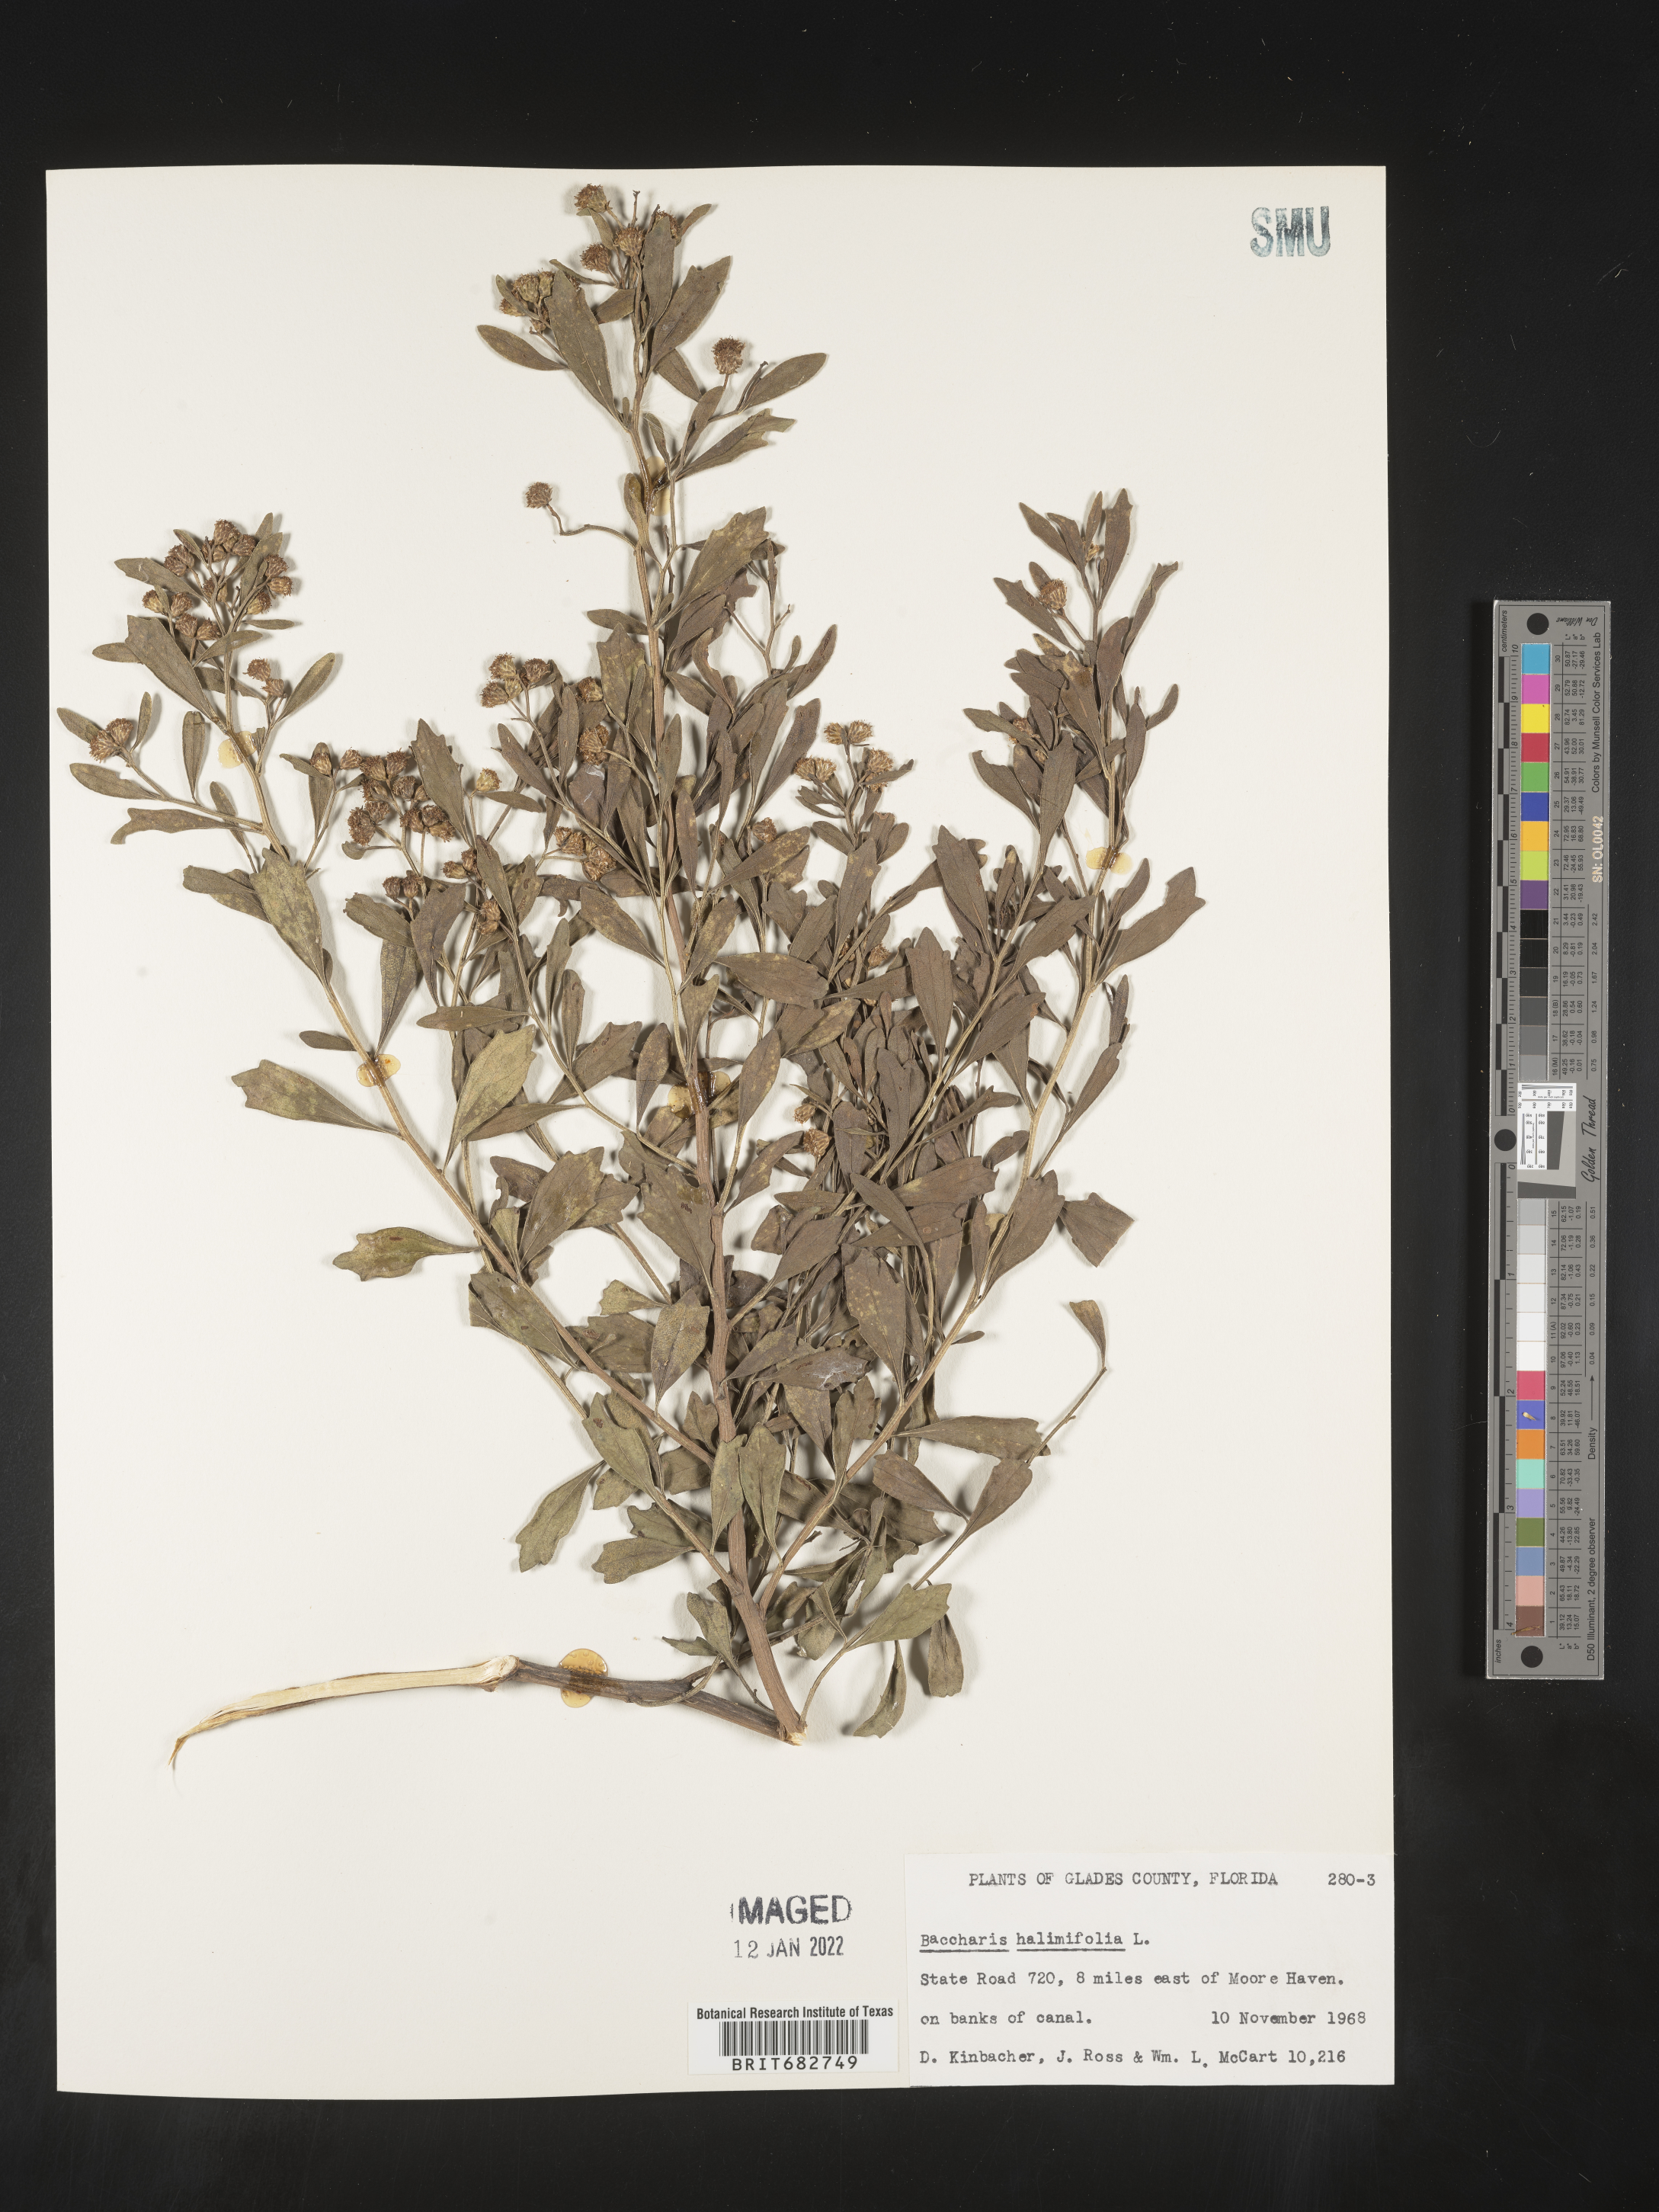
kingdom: Plantae
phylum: Tracheophyta
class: Magnoliopsida
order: Asterales
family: Asteraceae
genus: Nidorella
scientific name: Nidorella ivifolia
